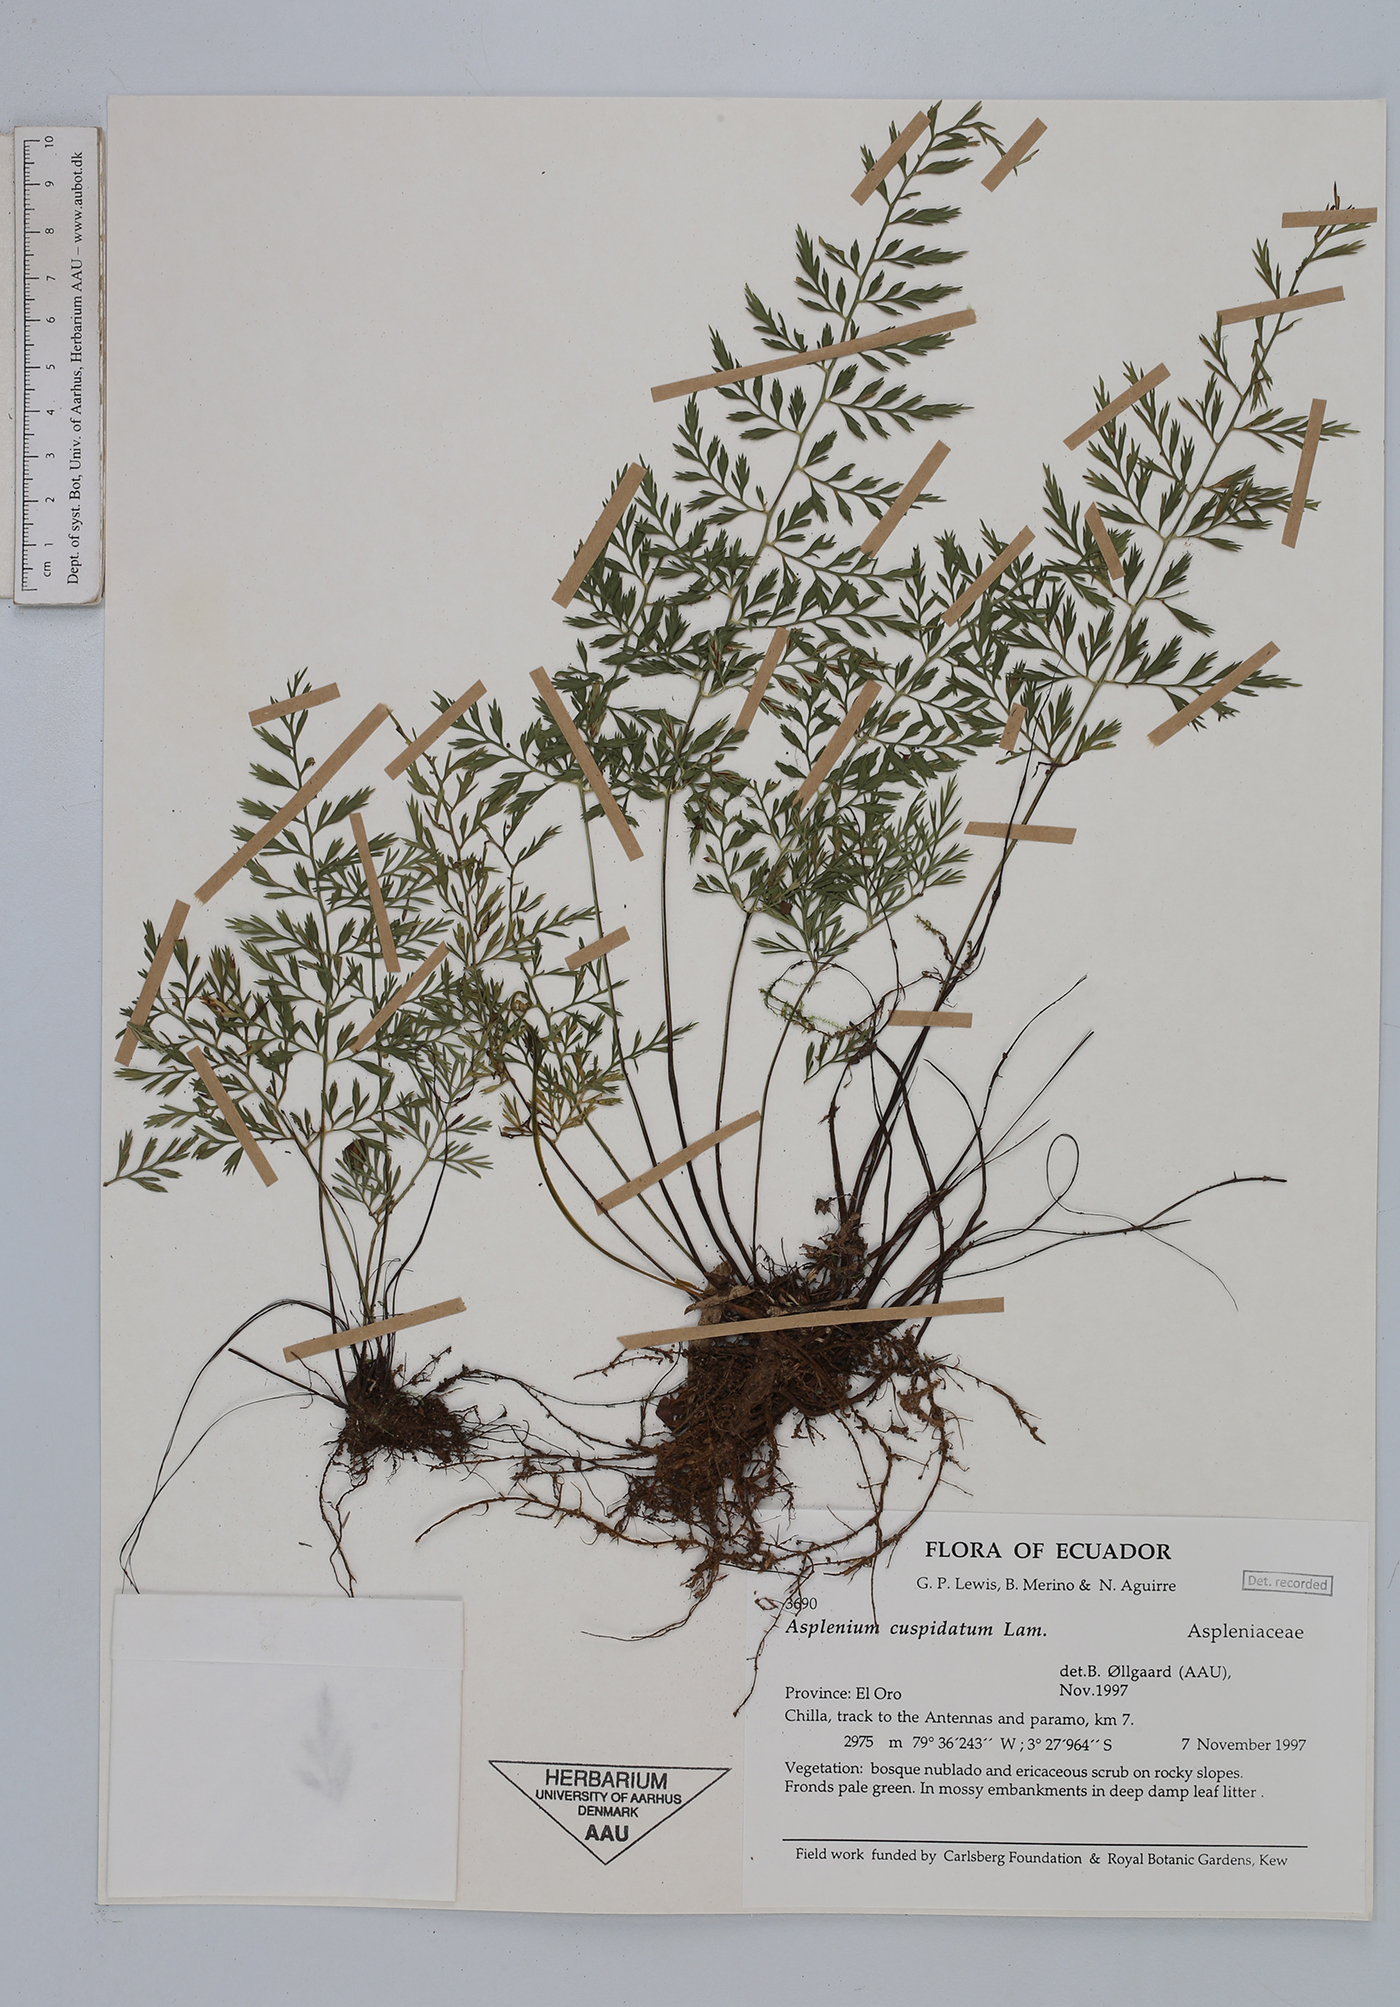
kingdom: Plantae
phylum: Tracheophyta
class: Polypodiopsida
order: Polypodiales
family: Aspleniaceae
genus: Asplenium
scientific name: Asplenium cuspidatum
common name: Eared spleenwort
